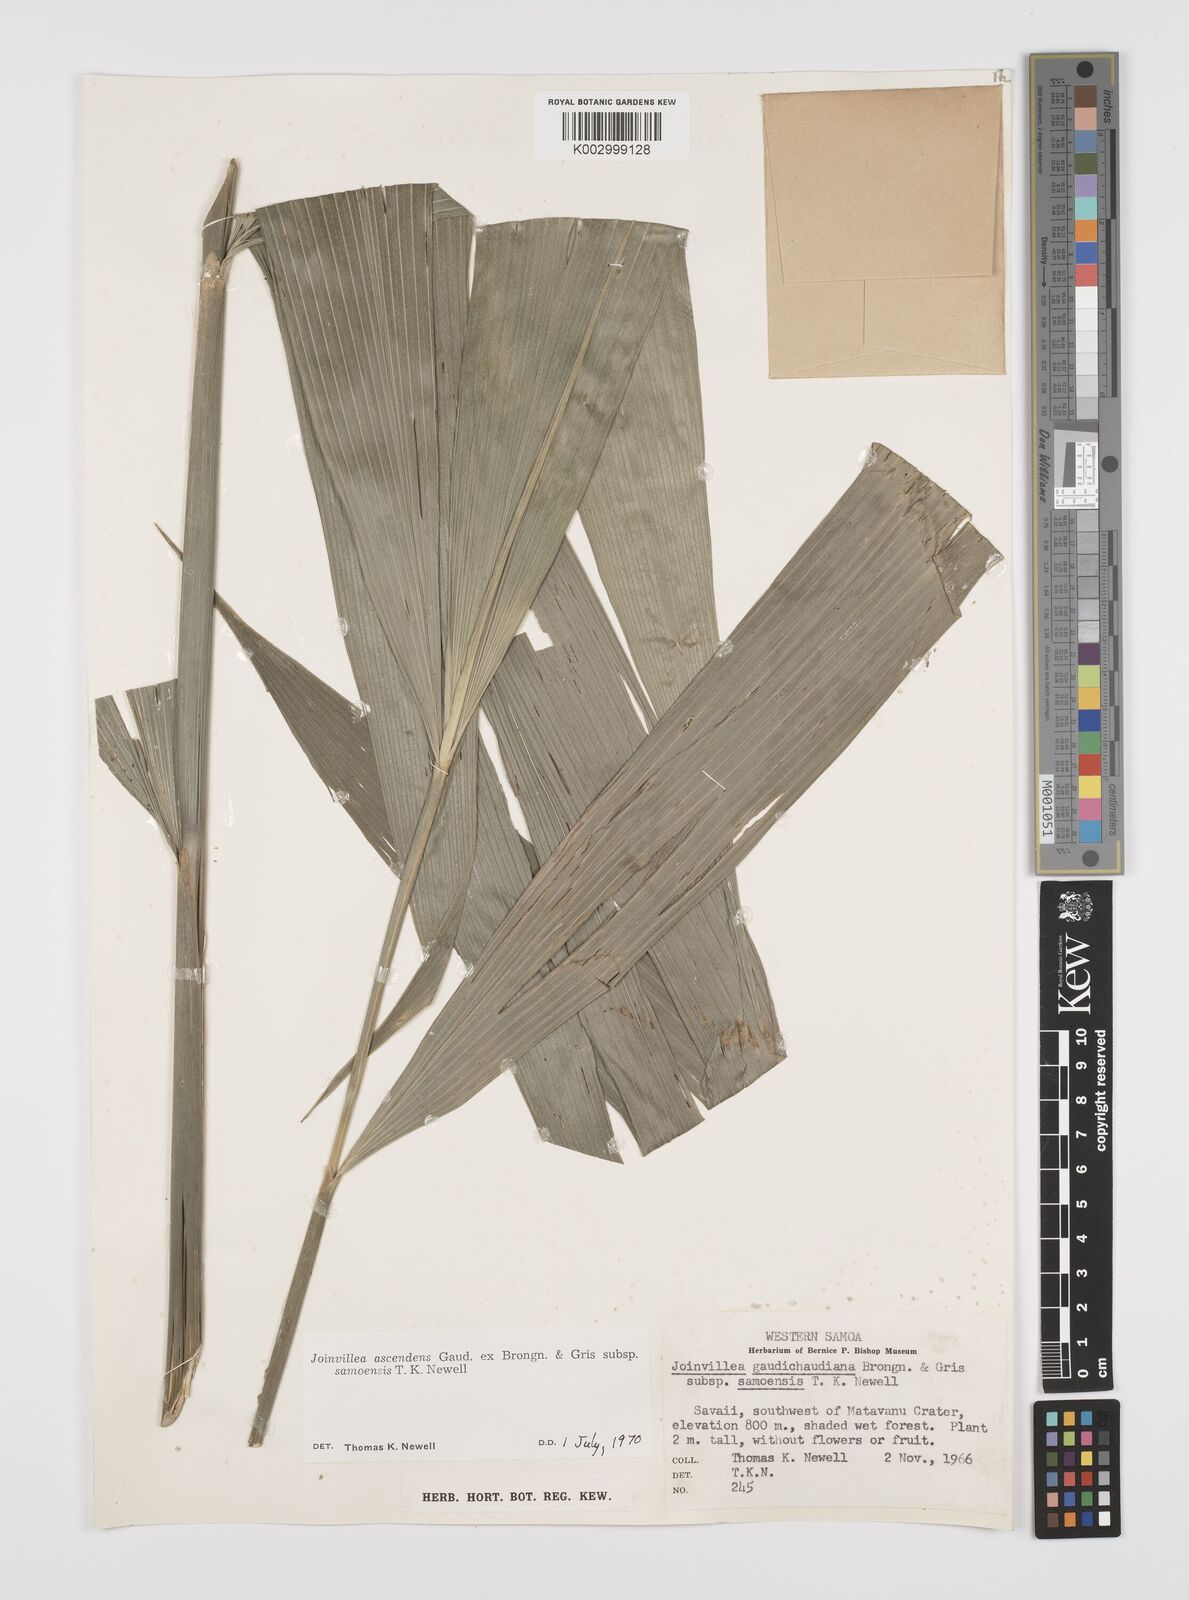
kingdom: Plantae
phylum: Tracheophyta
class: Liliopsida
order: Poales
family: Joinvilleaceae
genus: Joinvillea
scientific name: Joinvillea bryanii
